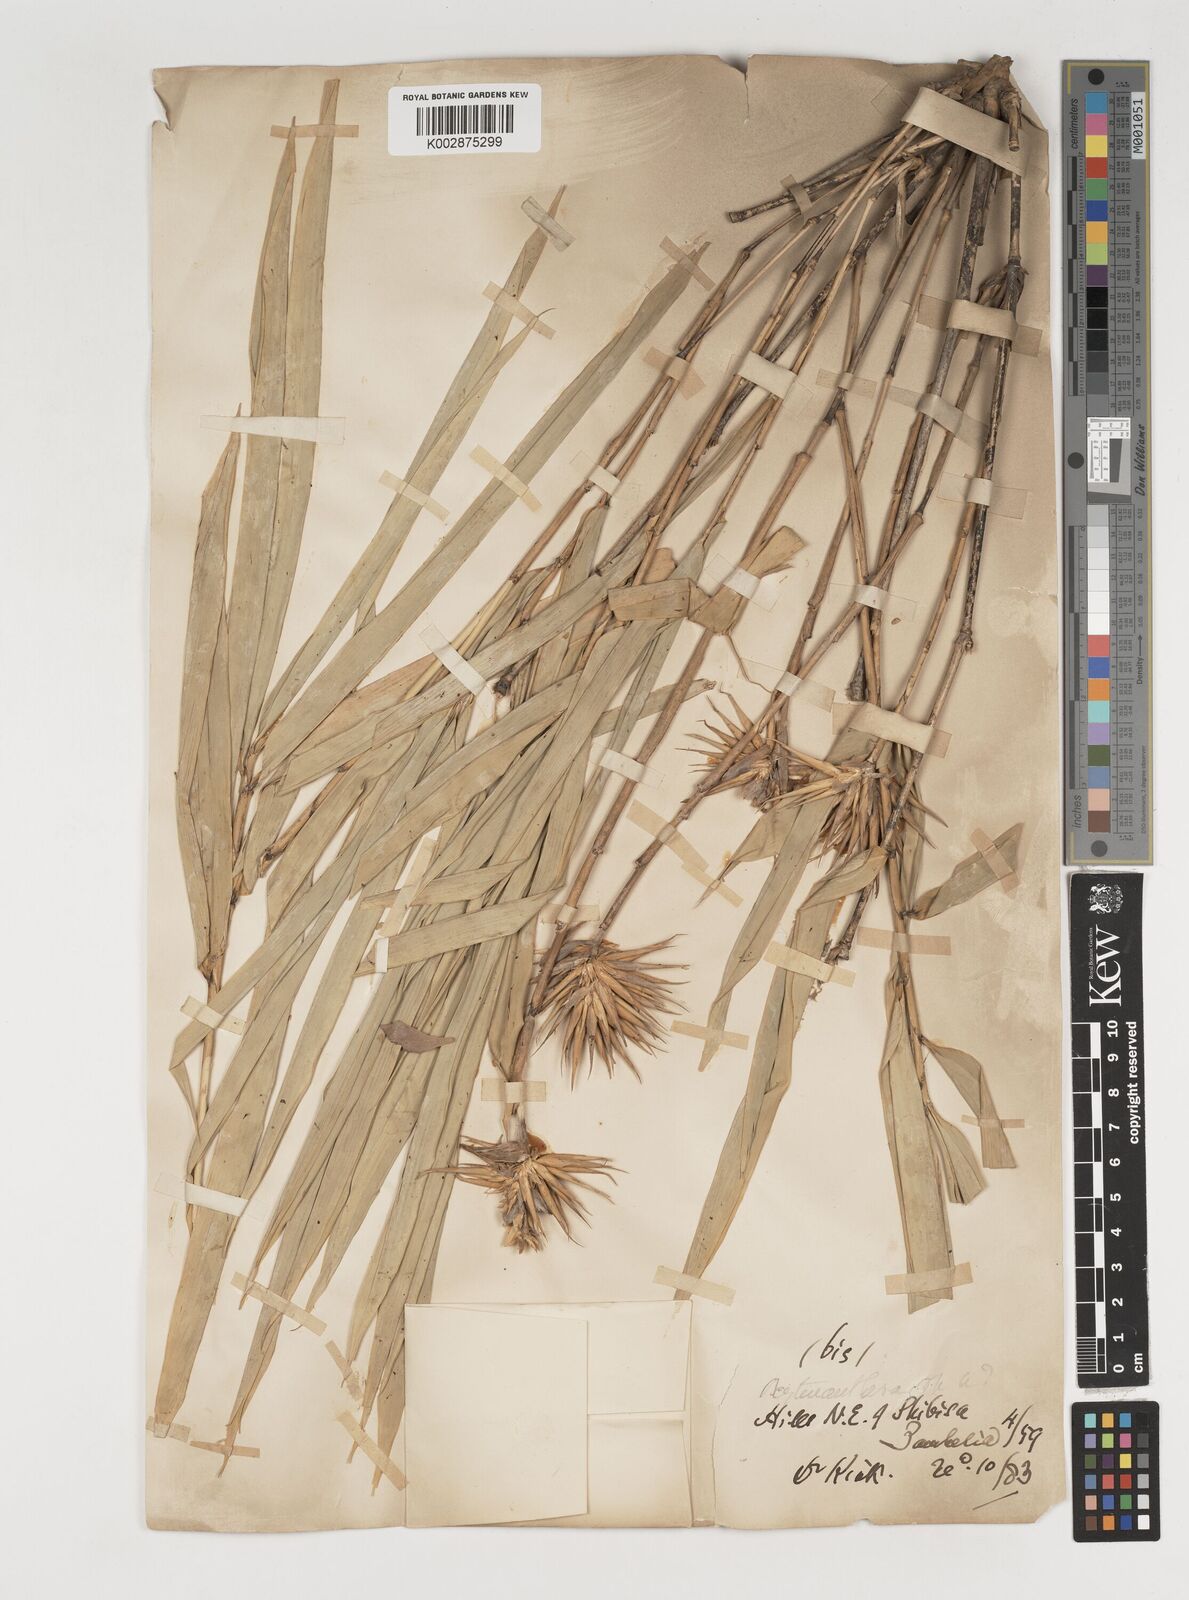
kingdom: Plantae
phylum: Tracheophyta
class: Liliopsida
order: Poales
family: Poaceae
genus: Oxytenanthera
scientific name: Oxytenanthera abyssinica
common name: Wine bamboo
